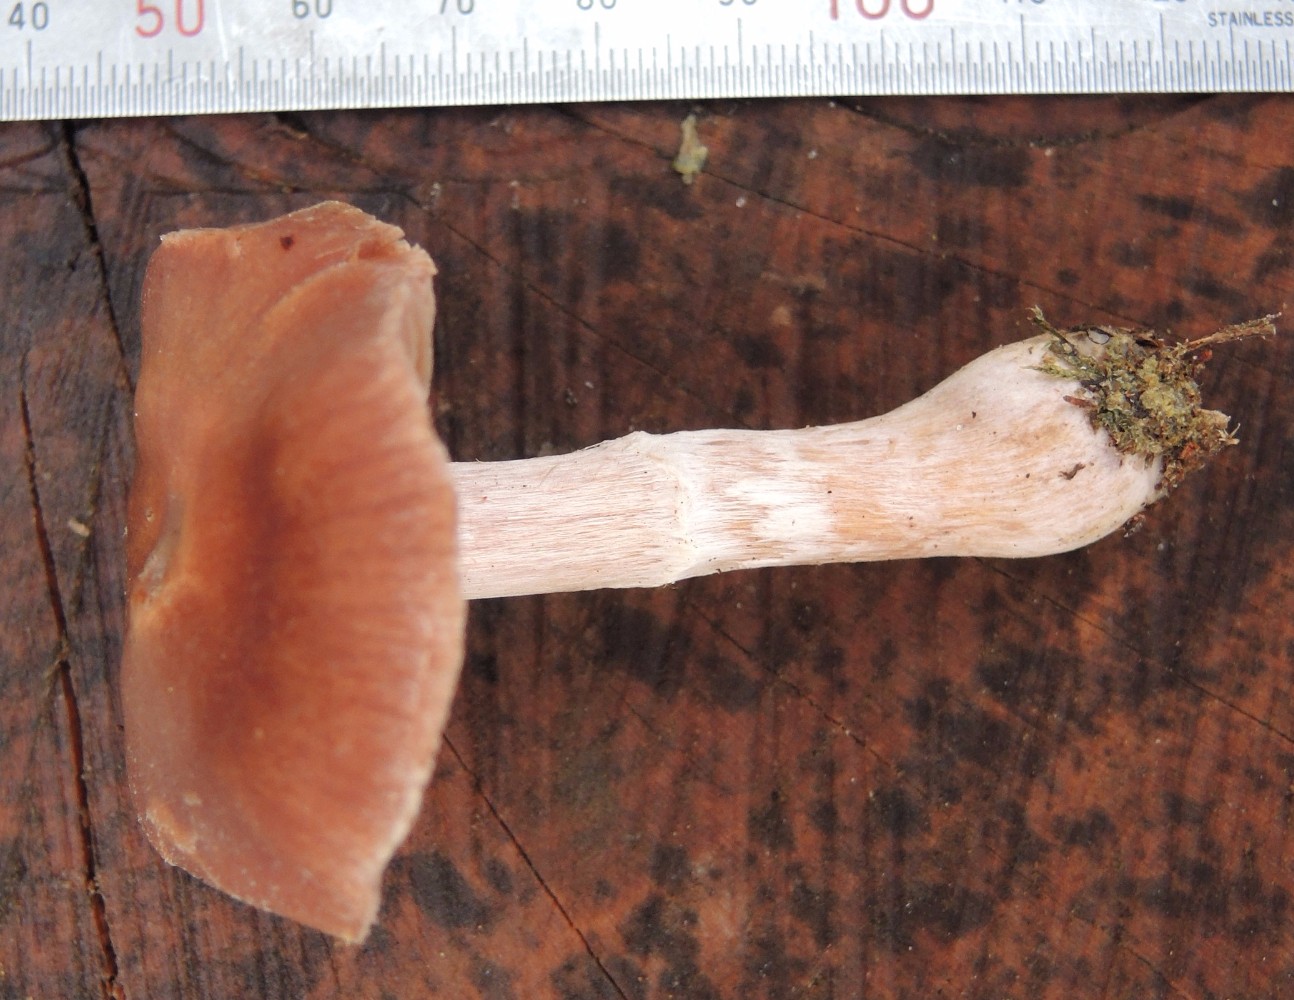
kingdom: Fungi
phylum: Basidiomycota
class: Agaricomycetes
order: Agaricales
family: Cortinariaceae
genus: Cortinarius
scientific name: Cortinarius kauffmanianus
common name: plantage-slørhat
